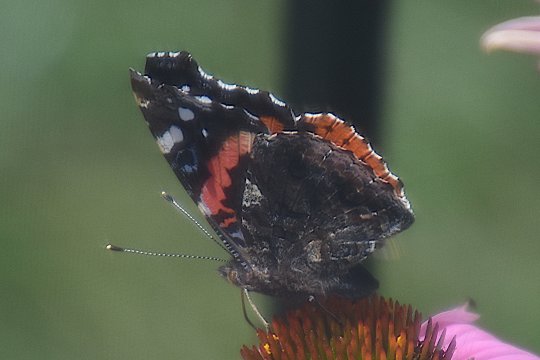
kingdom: Animalia
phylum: Arthropoda
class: Insecta
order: Lepidoptera
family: Nymphalidae
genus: Vanessa
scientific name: Vanessa atalanta
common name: Red Admiral
